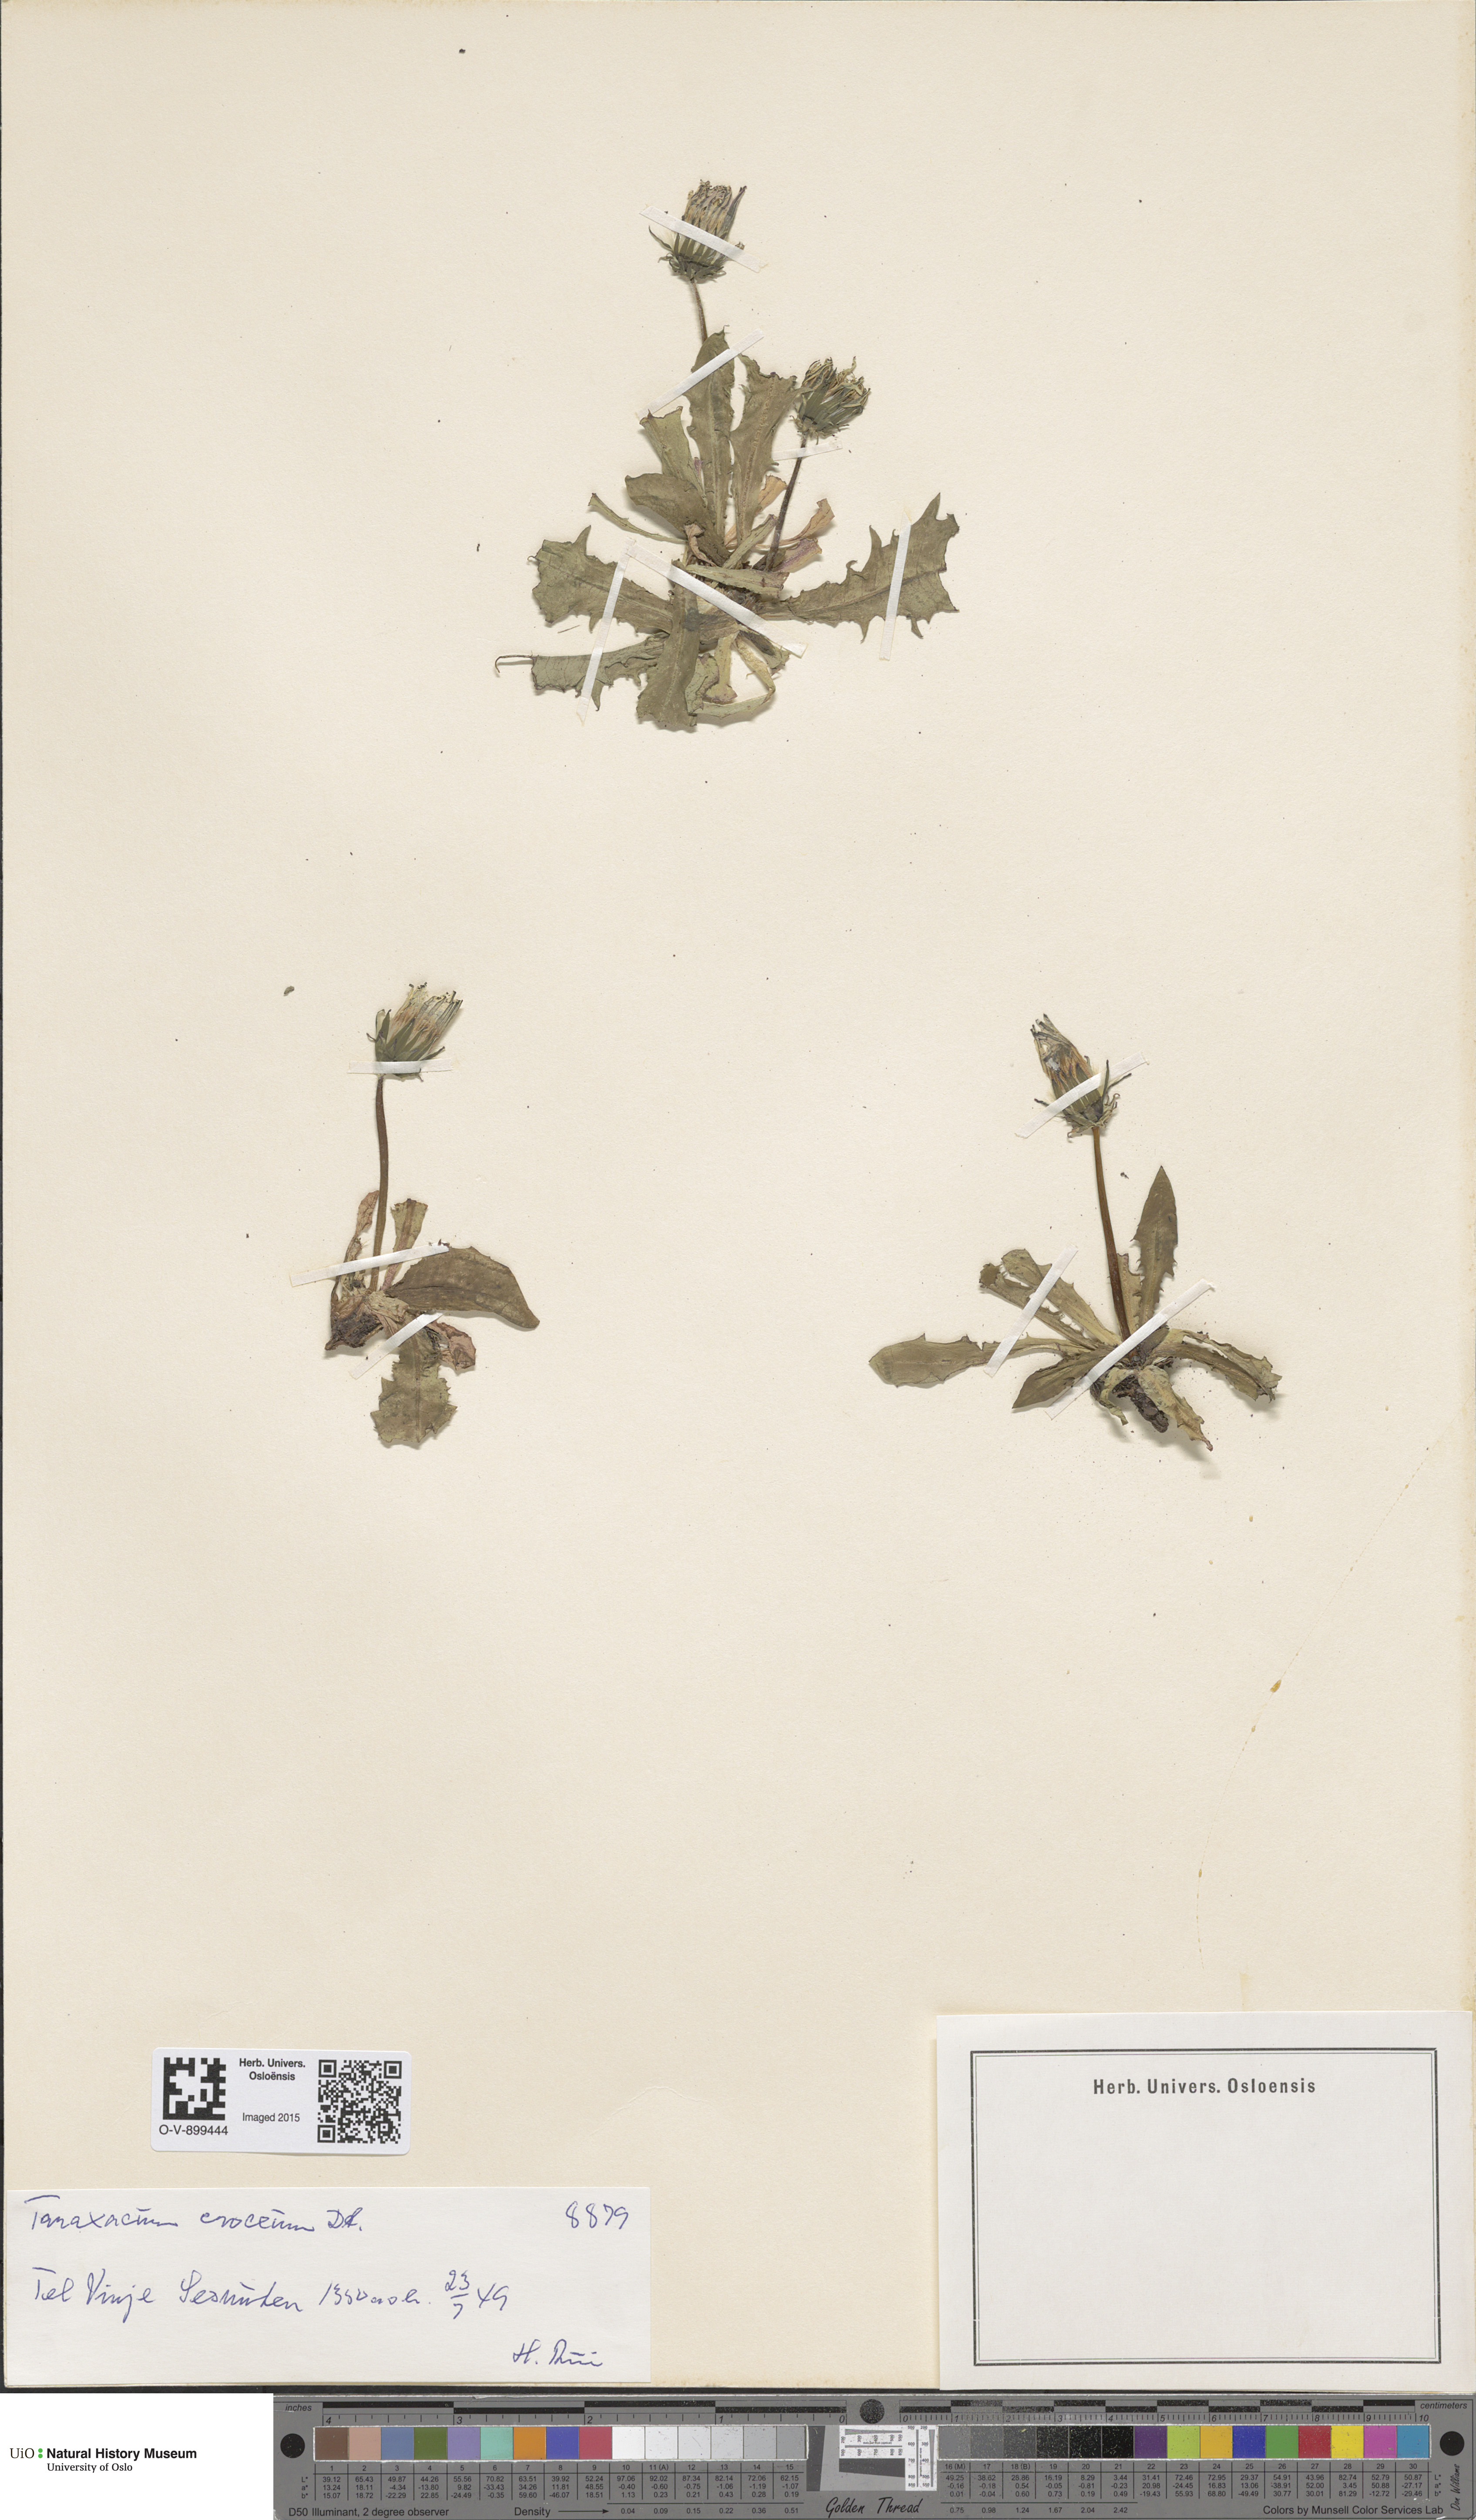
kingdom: Plantae
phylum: Tracheophyta
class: Magnoliopsida
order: Asterales
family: Asteraceae
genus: Taraxacum
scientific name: Taraxacum croceum
